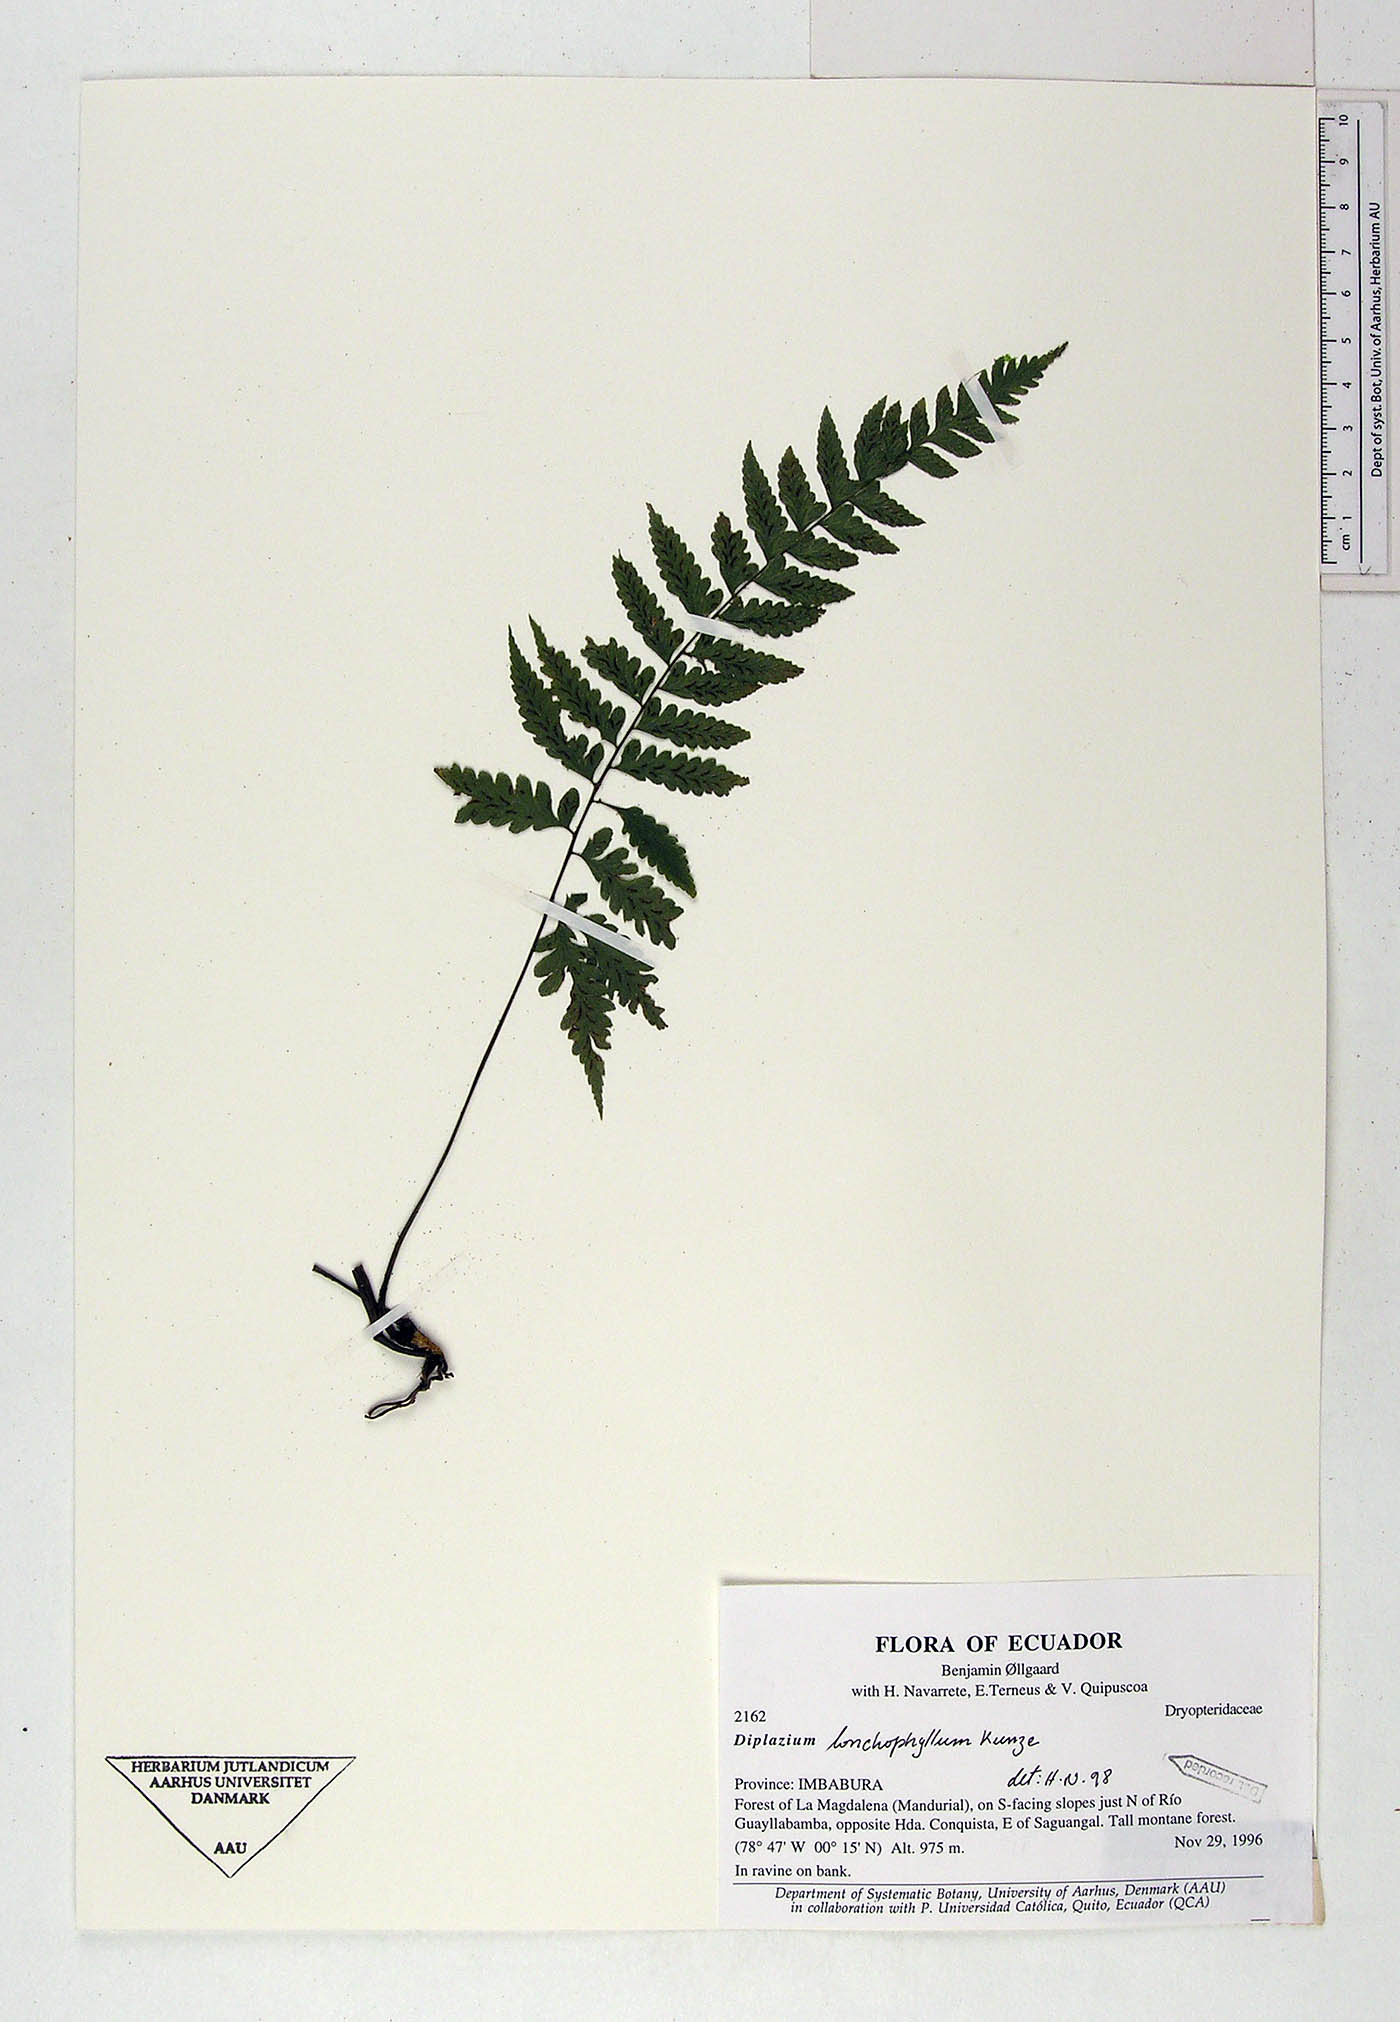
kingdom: Plantae
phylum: Tracheophyta
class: Polypodiopsida
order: Polypodiales
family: Athyriaceae
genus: Diplazium
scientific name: Diplazium lonchophyllum
